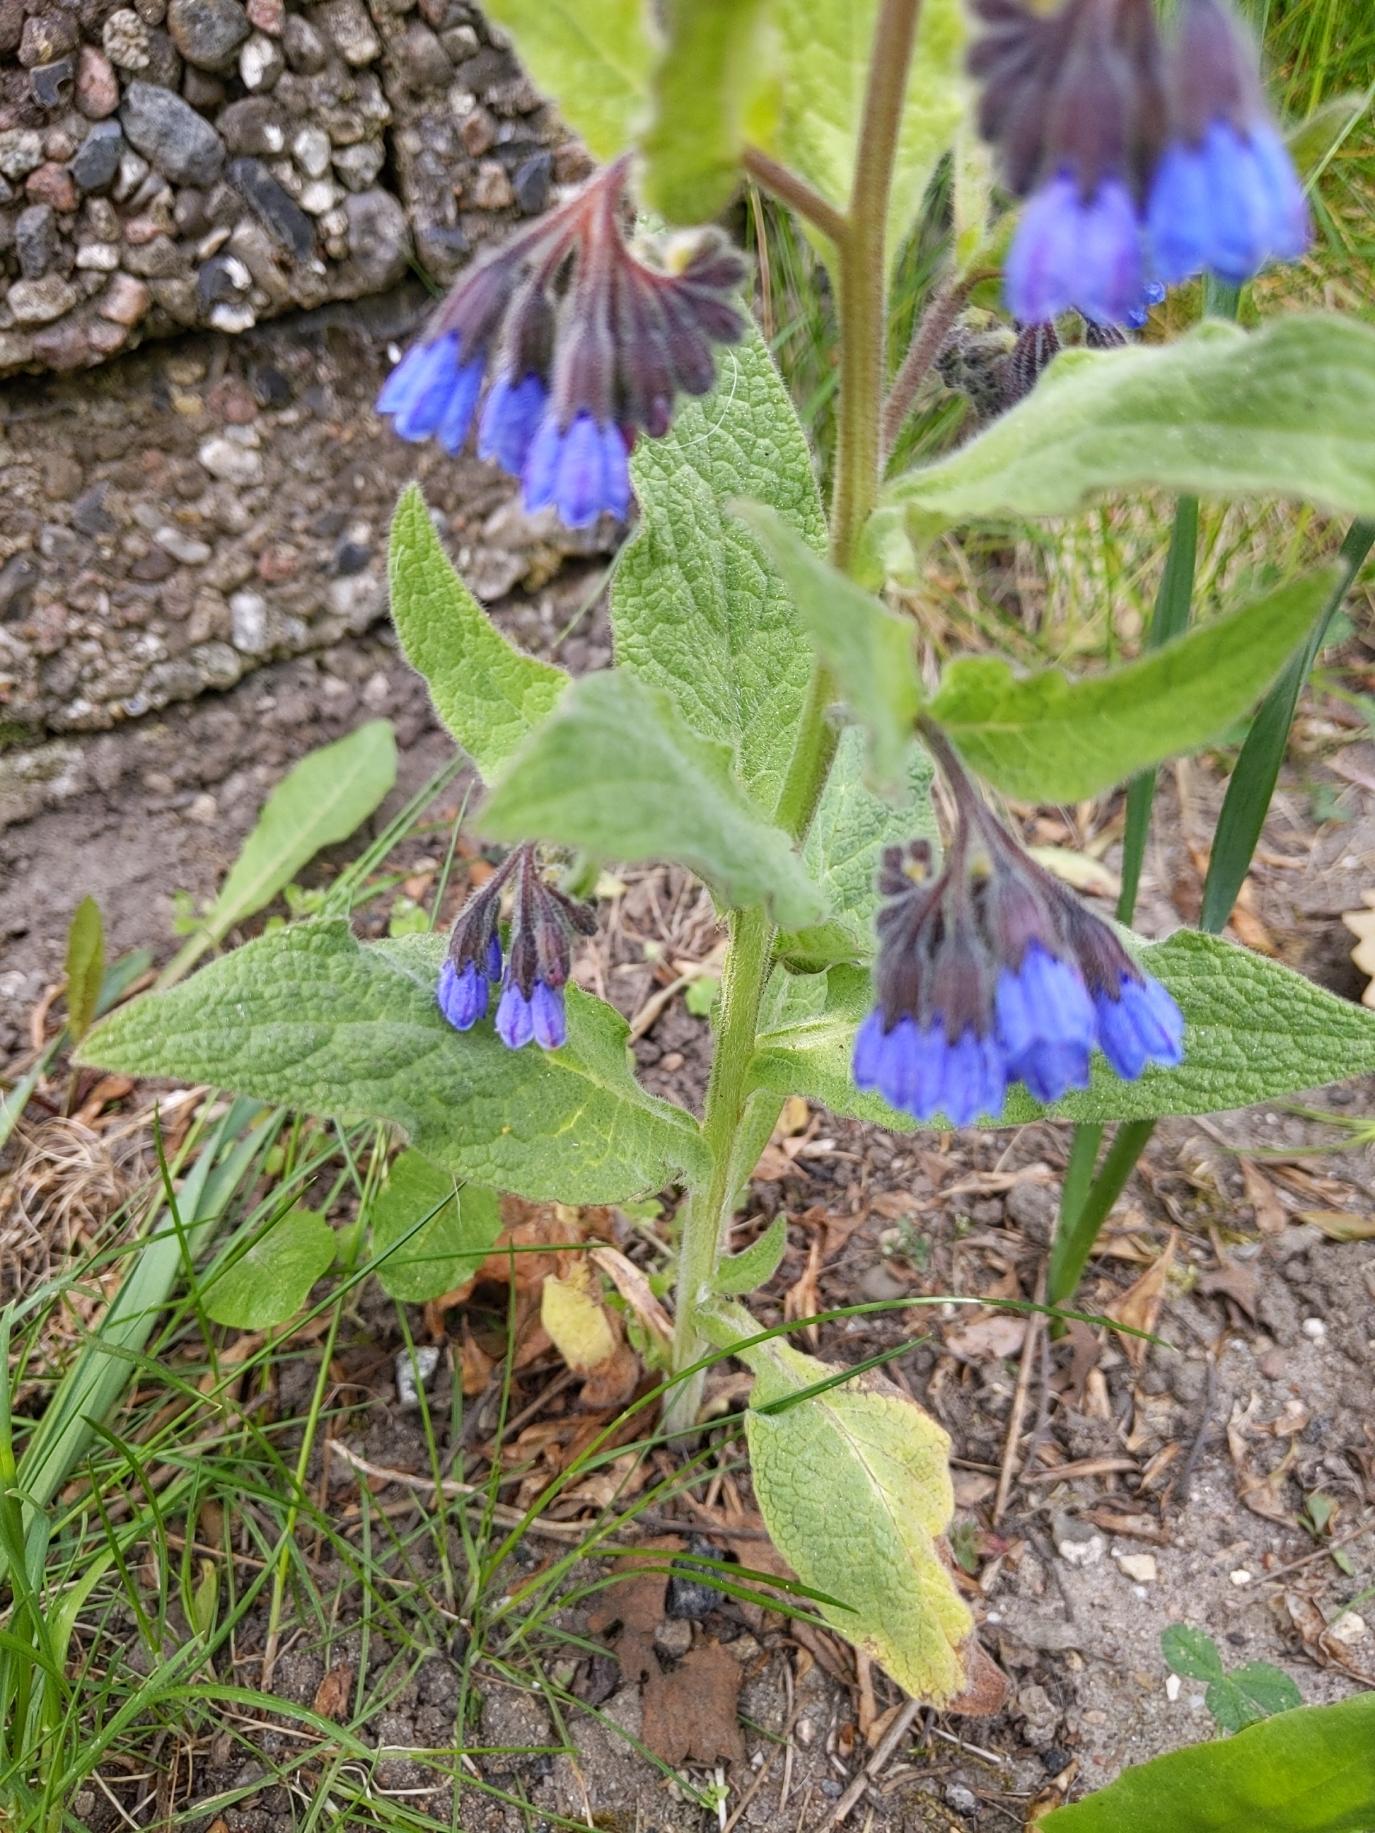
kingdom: Plantae
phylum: Tracheophyta
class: Magnoliopsida
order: Boraginales
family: Boraginaceae
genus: Symphytum
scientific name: Symphytum caucasicum
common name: Kaukasisk kulsukker
